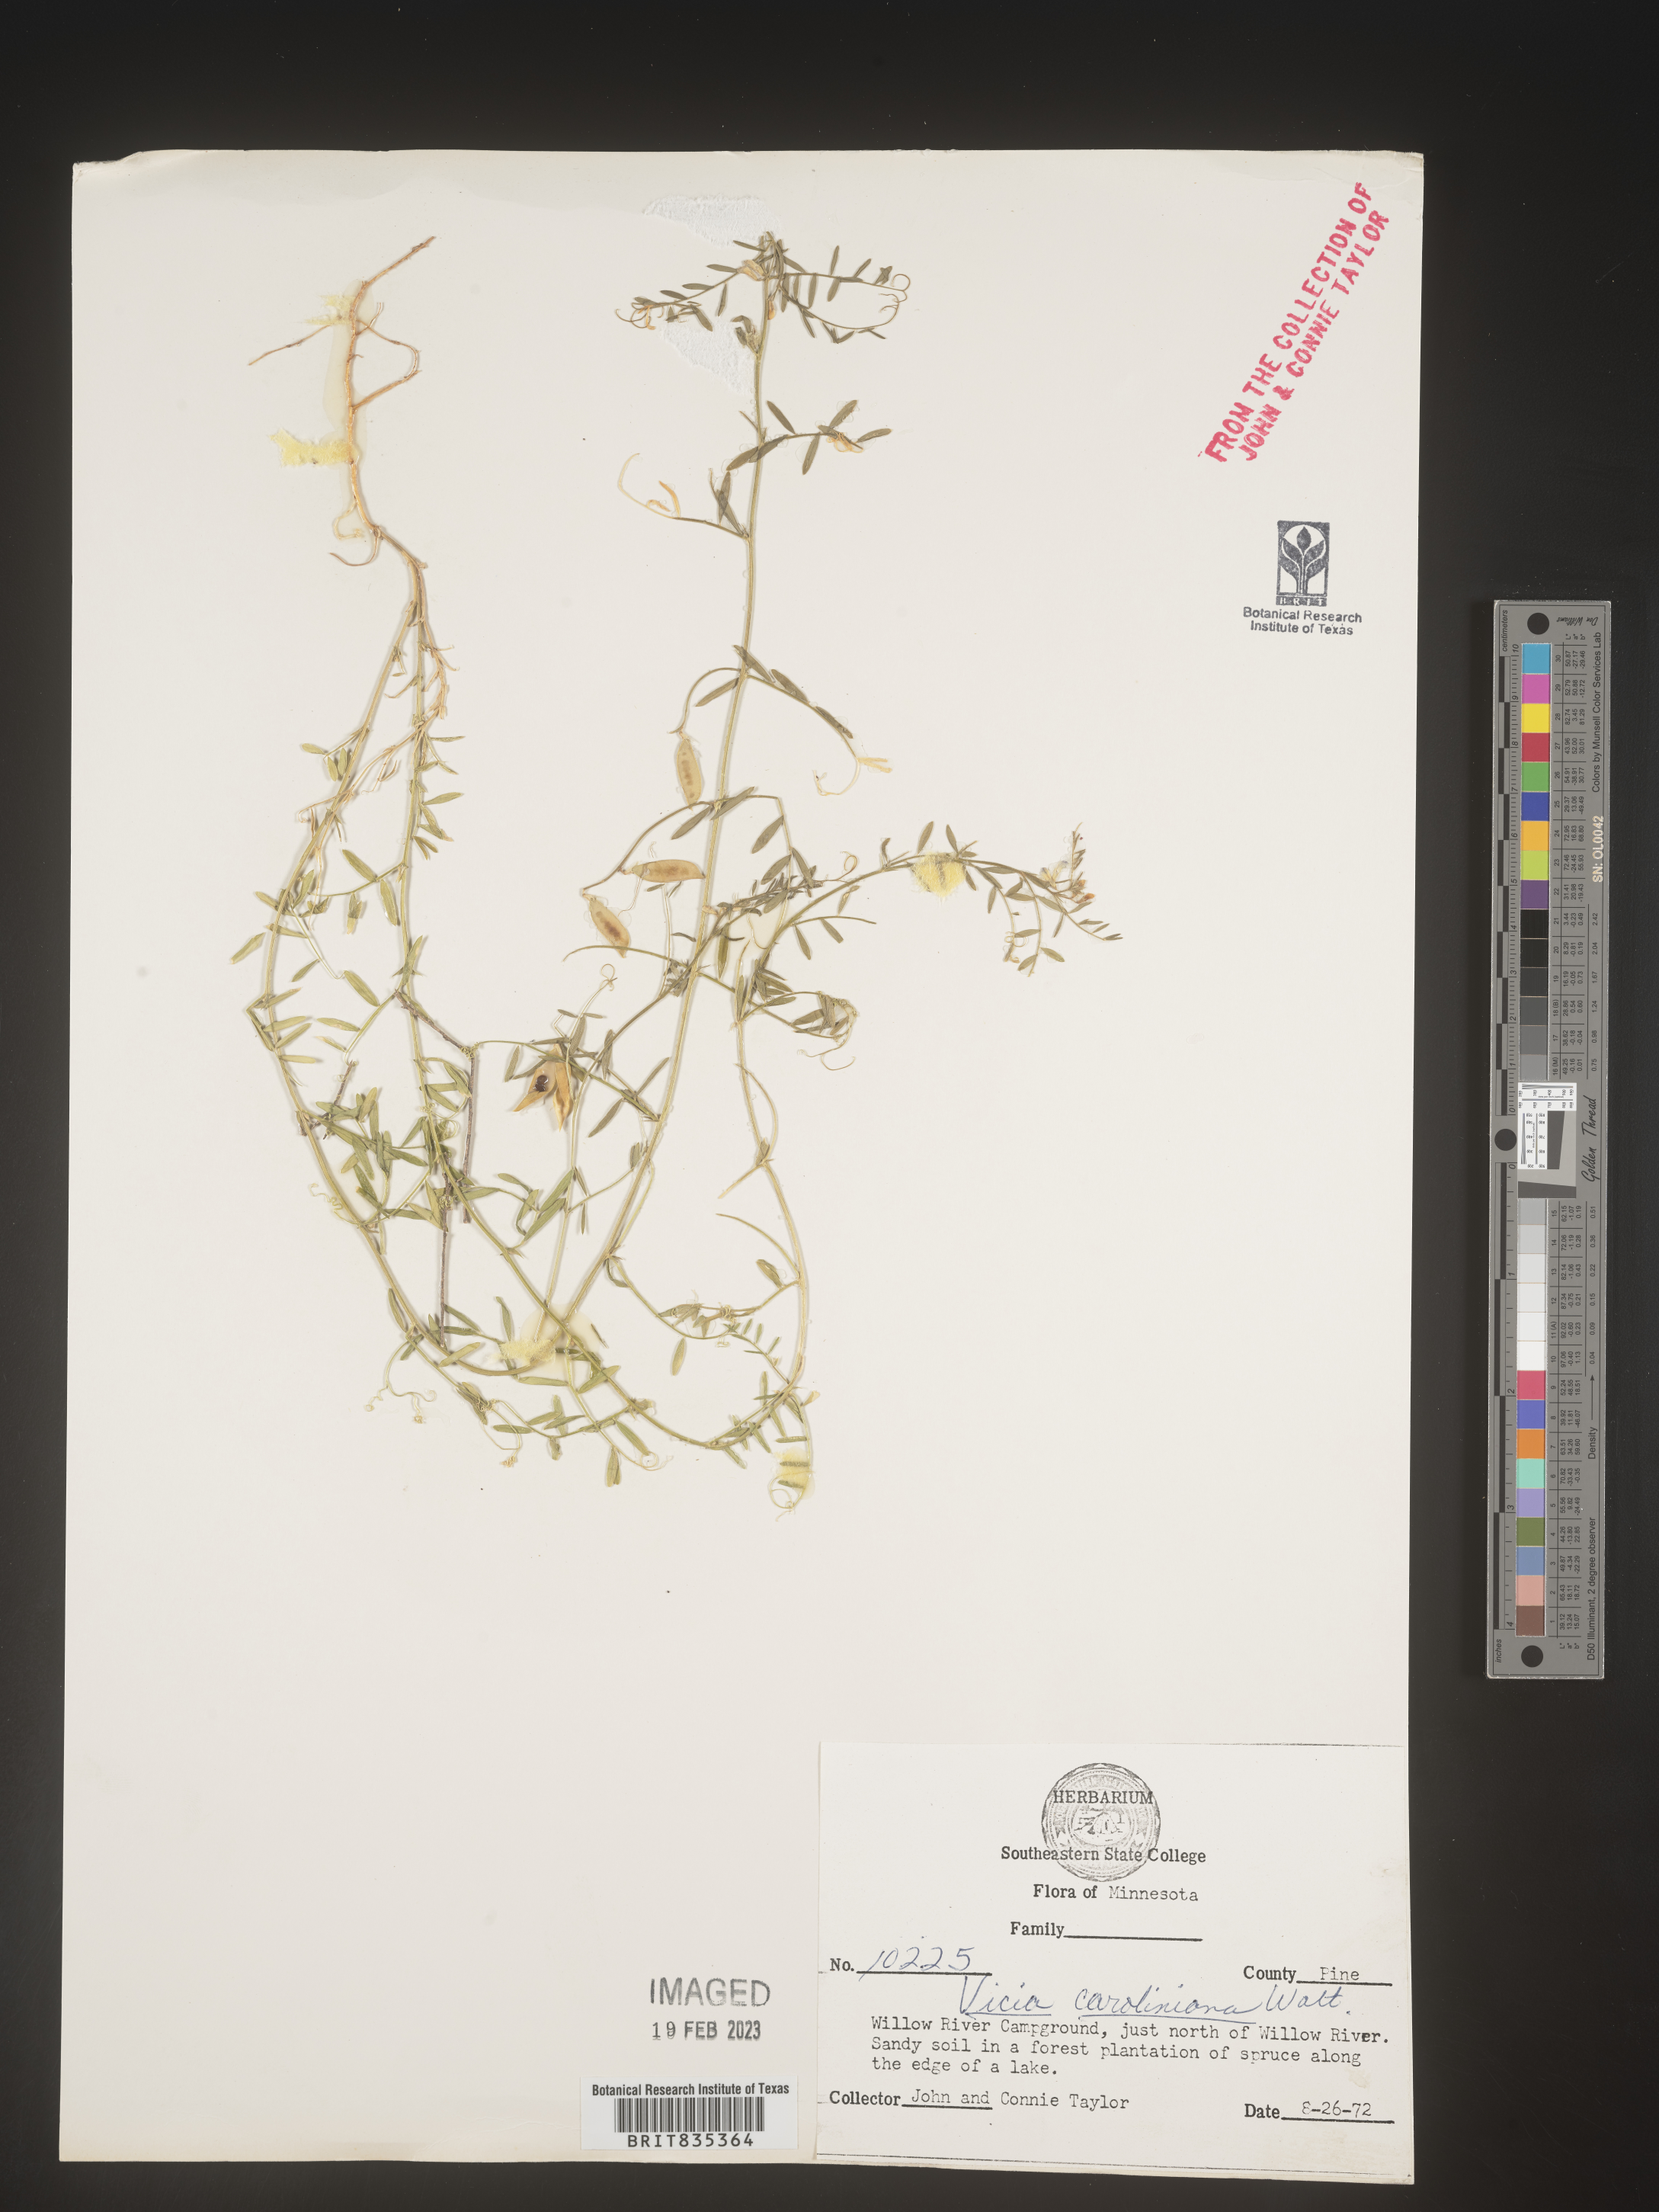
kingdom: Plantae
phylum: Tracheophyta
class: Magnoliopsida
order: Fabales
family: Fabaceae
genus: Vicia
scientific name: Vicia caroliniana
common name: Carolina vetch
